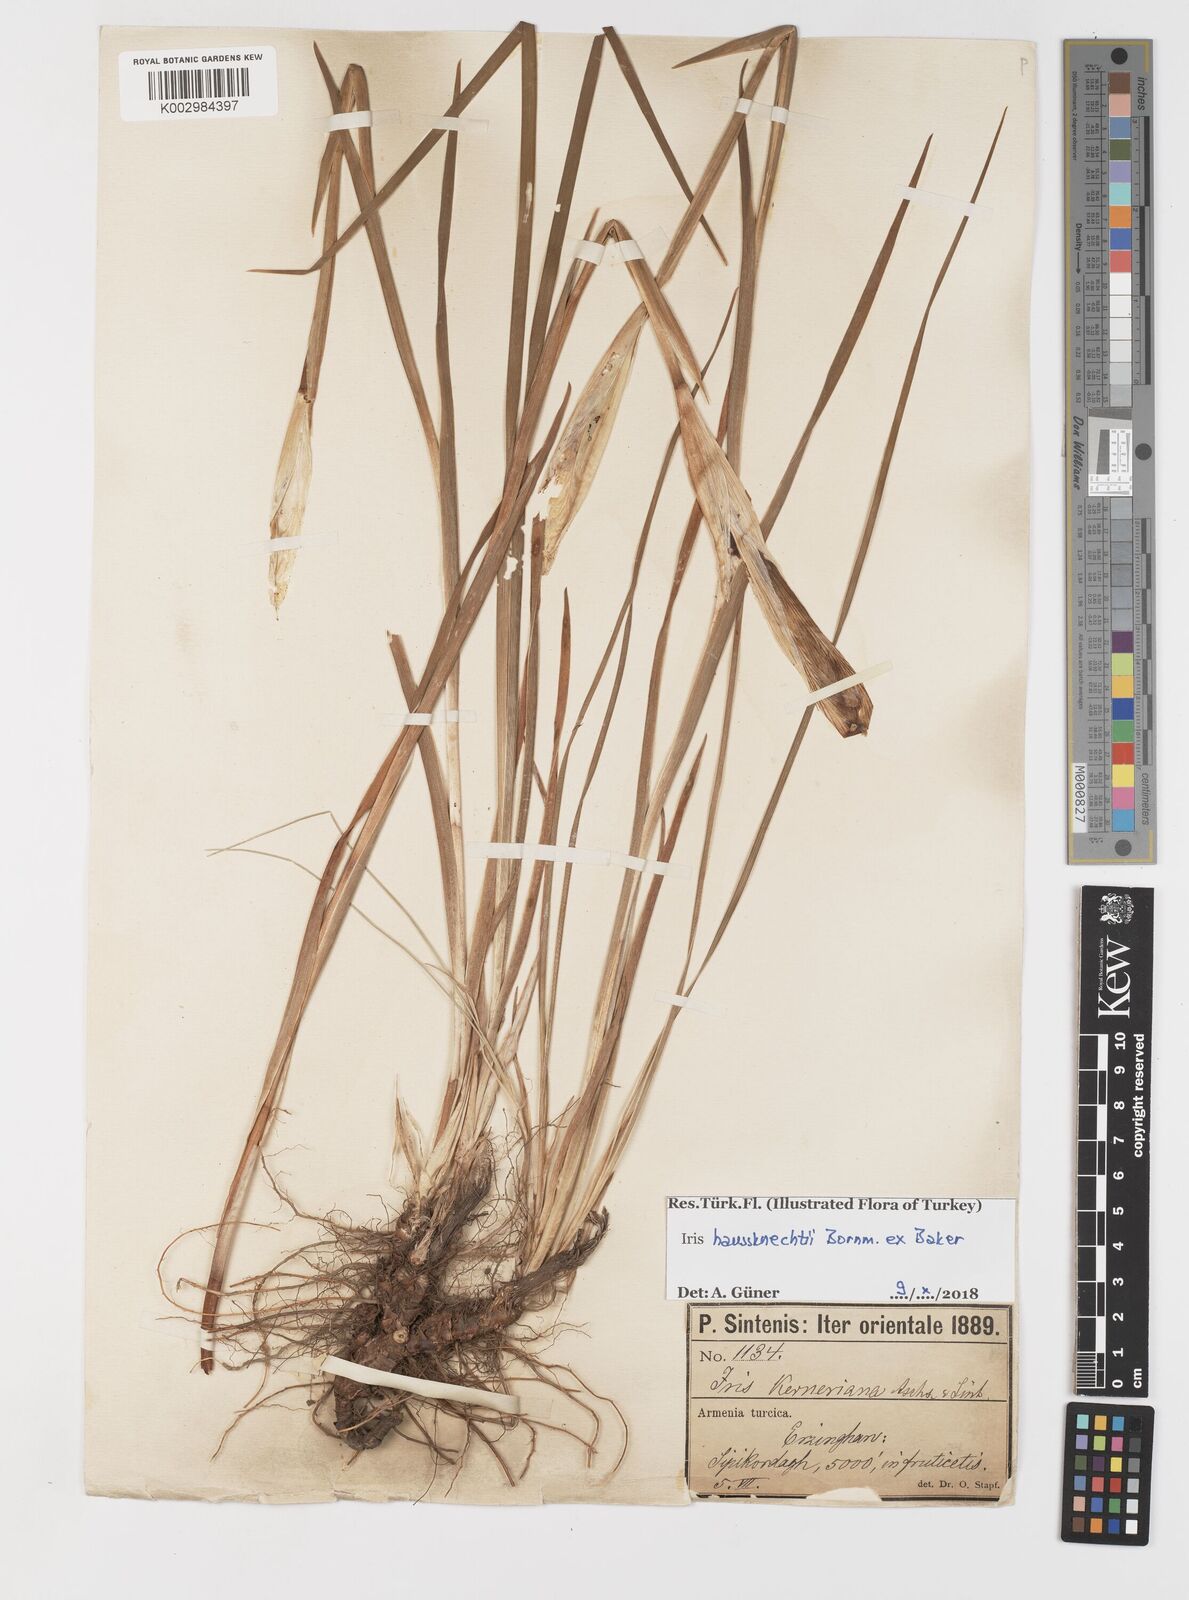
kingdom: Plantae
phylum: Tracheophyta
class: Liliopsida
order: Asparagales
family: Iridaceae
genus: Iris
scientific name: Iris haussknechtii
